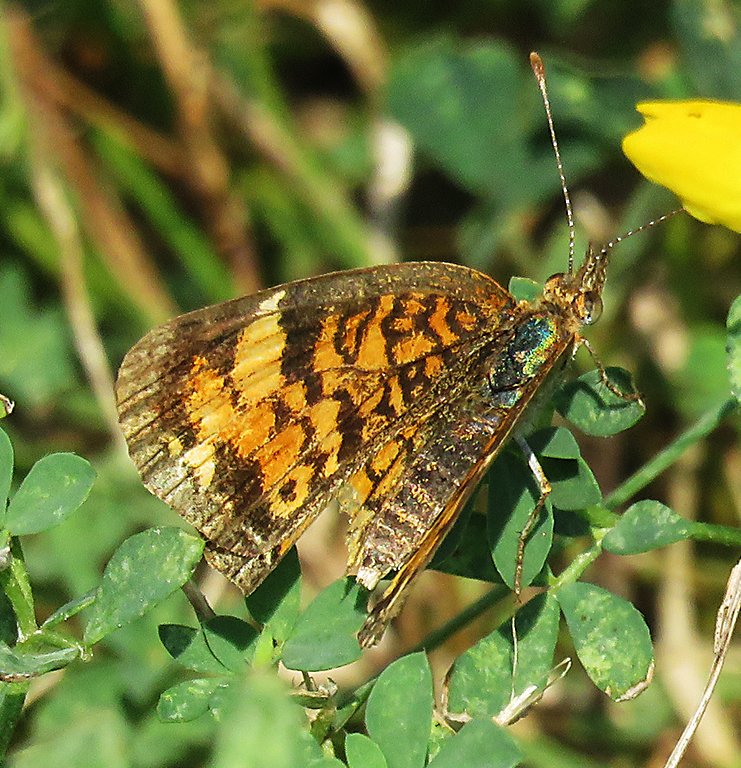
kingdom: Animalia
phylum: Arthropoda
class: Insecta
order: Lepidoptera
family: Nymphalidae
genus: Phyciodes
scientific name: Phyciodes tharos
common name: Pearl Crescent
